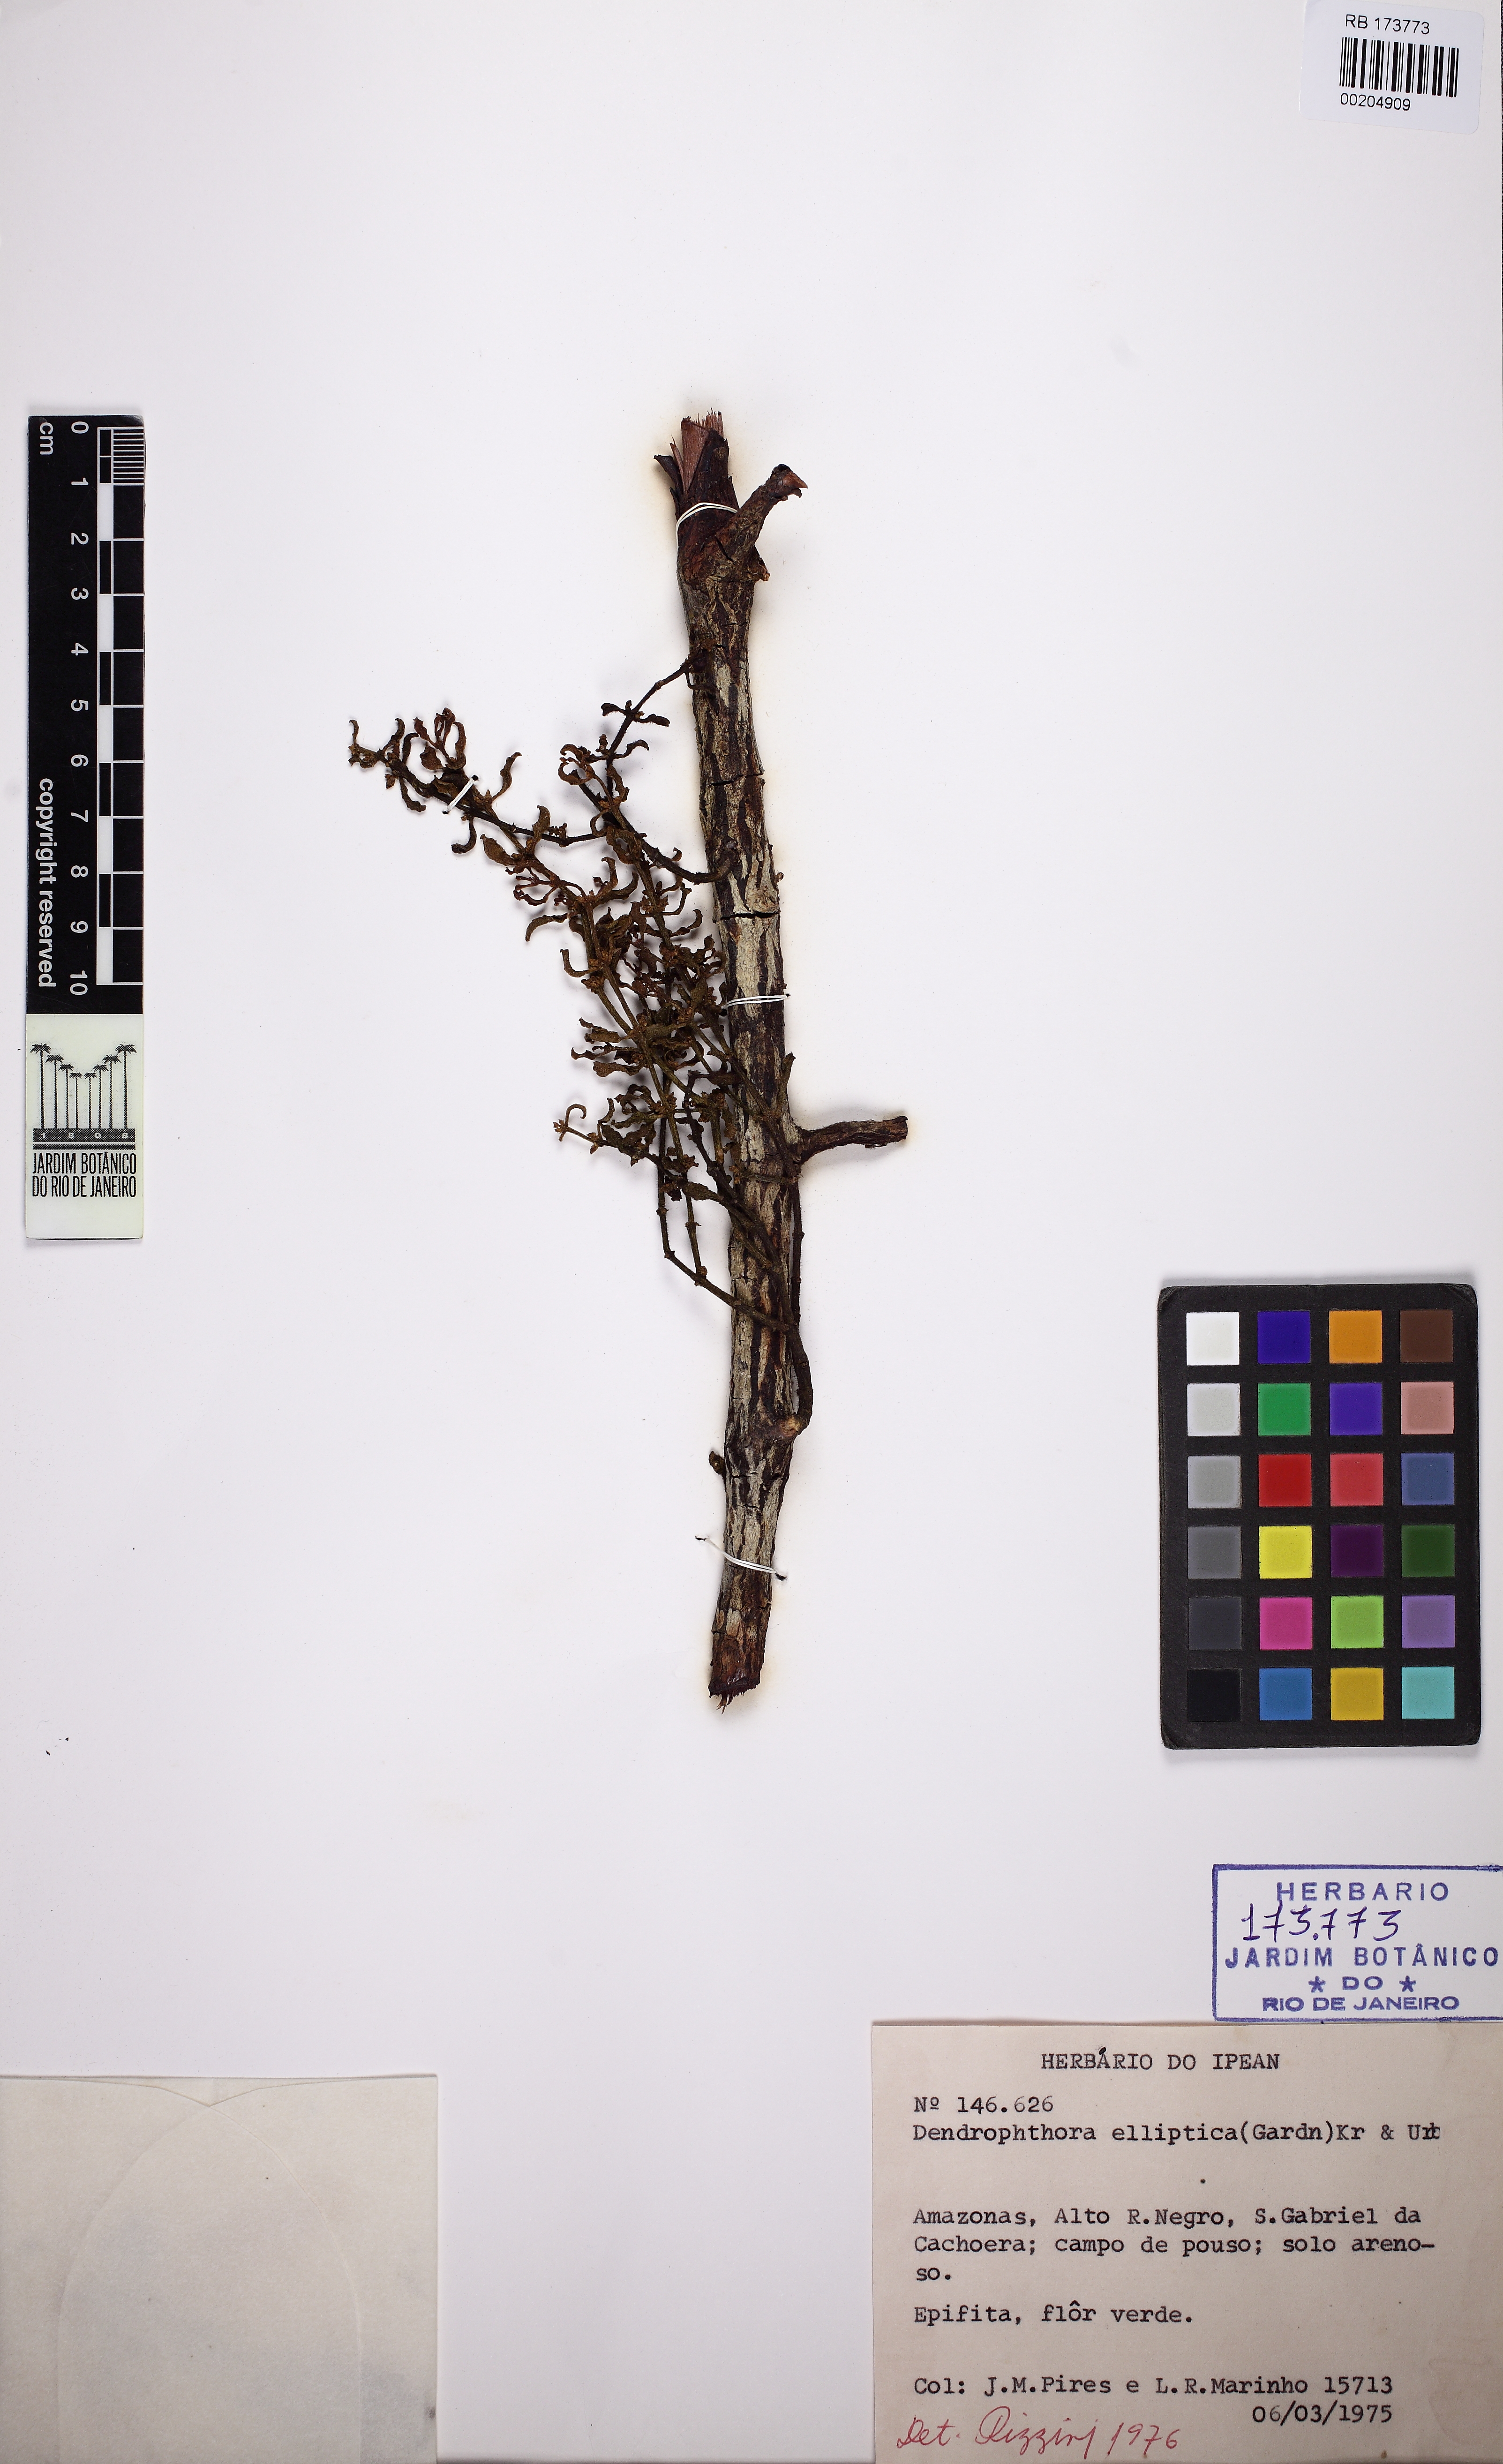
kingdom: Plantae
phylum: Tracheophyta
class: Magnoliopsida
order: Santalales
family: Viscaceae
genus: Dendrophthora
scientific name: Dendrophthora elliptica
